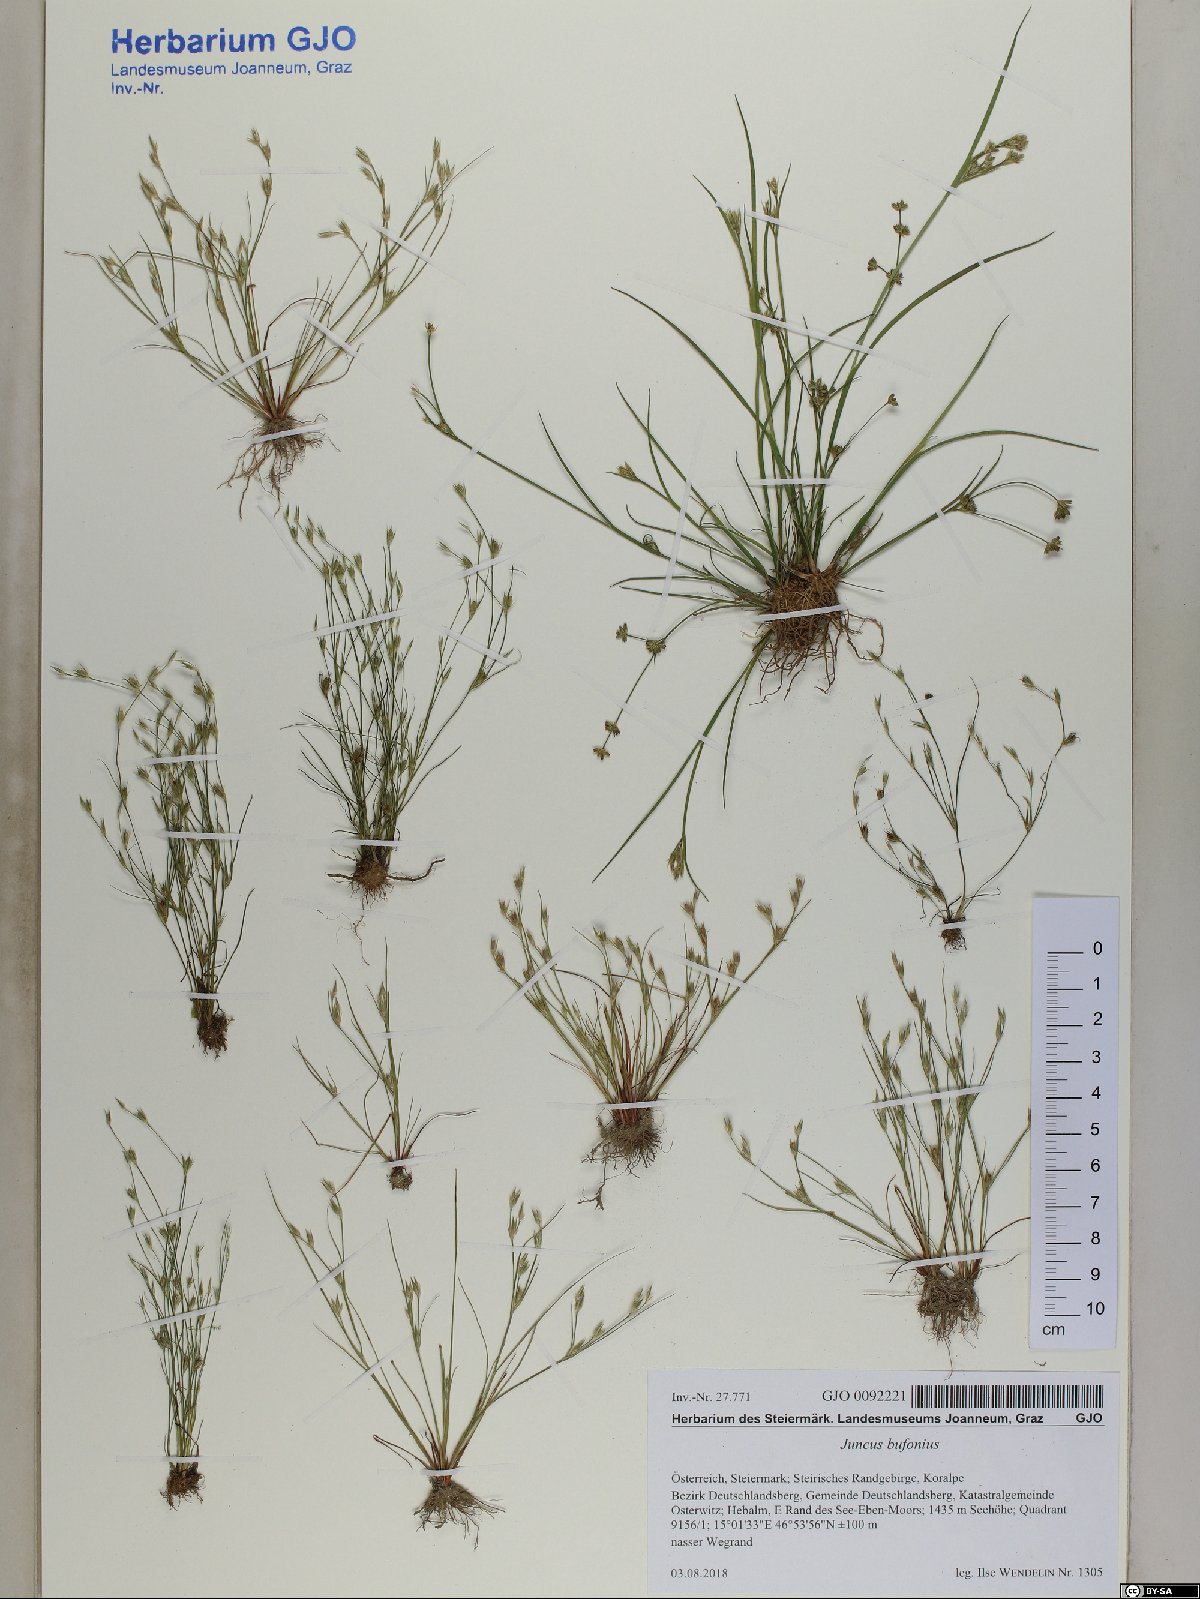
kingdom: Plantae
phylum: Tracheophyta
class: Liliopsida
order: Poales
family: Juncaceae
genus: Juncus
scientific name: Juncus bufonius
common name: Toad rush
